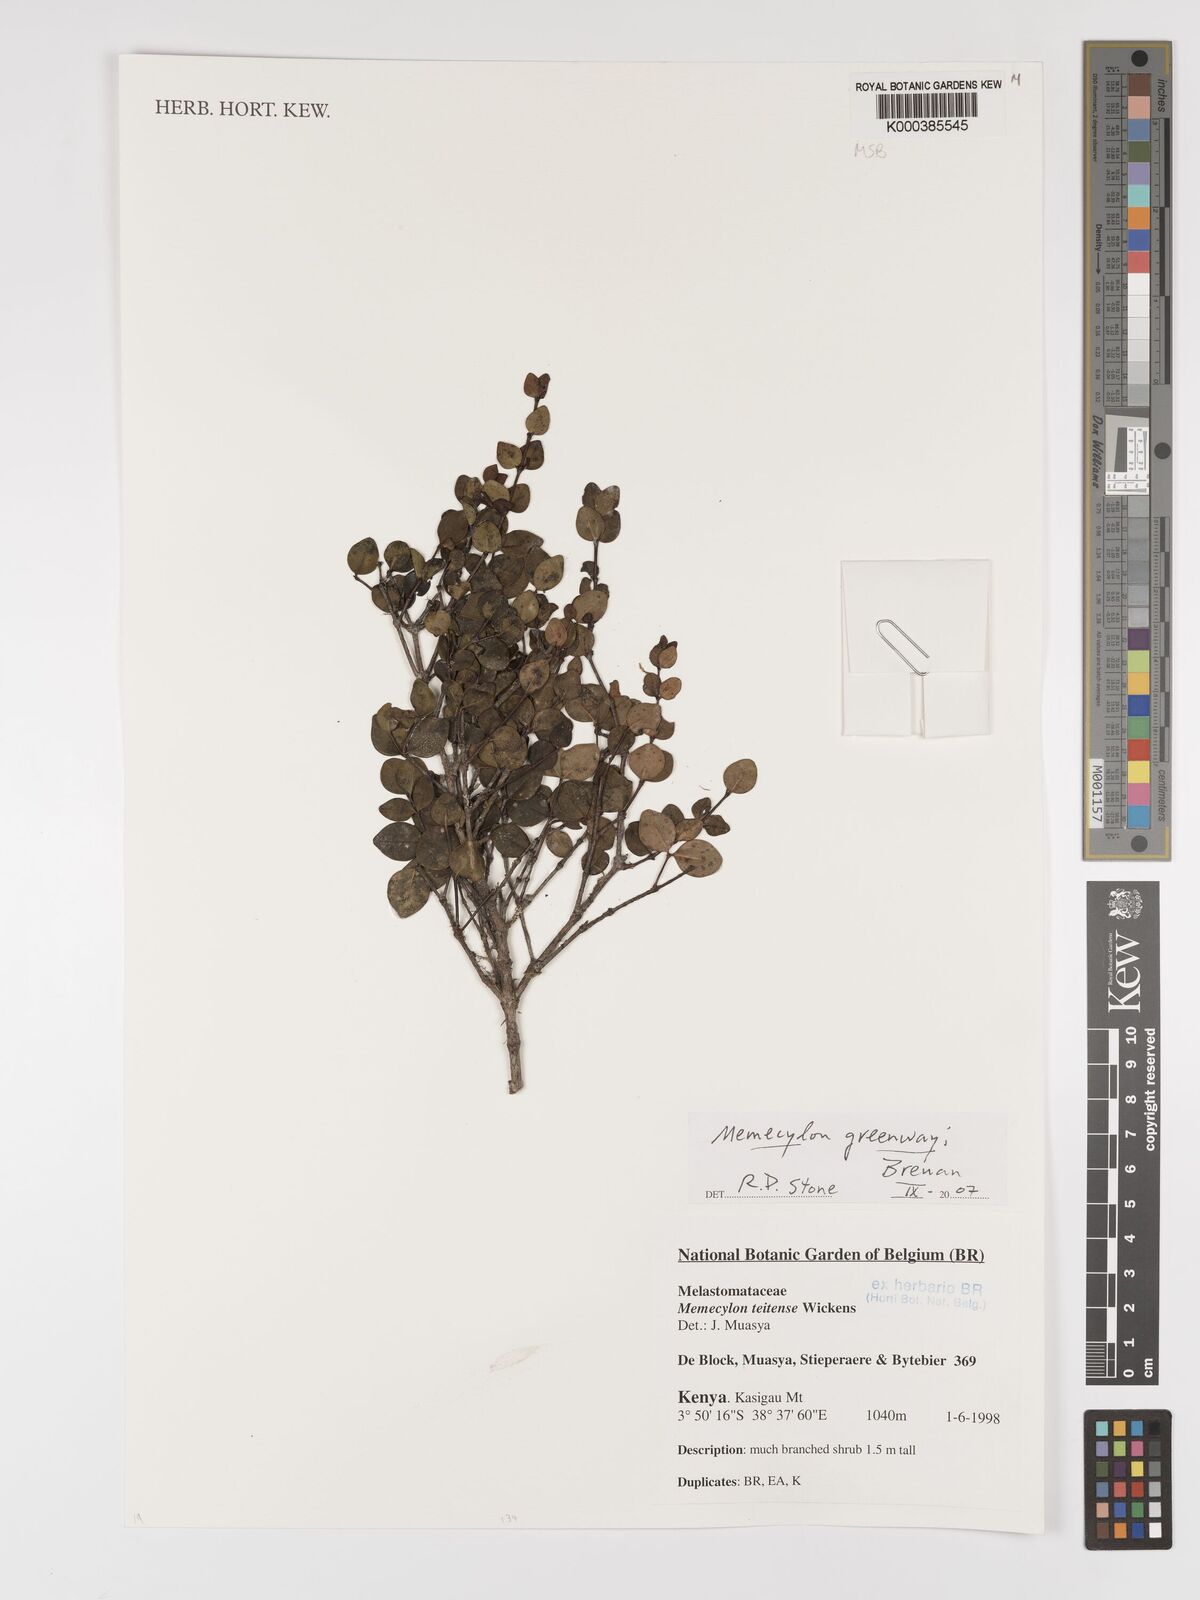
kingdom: Plantae
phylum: Tracheophyta
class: Magnoliopsida
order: Myrtales
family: Melastomataceae
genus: Memecylon
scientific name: Memecylon teitense
